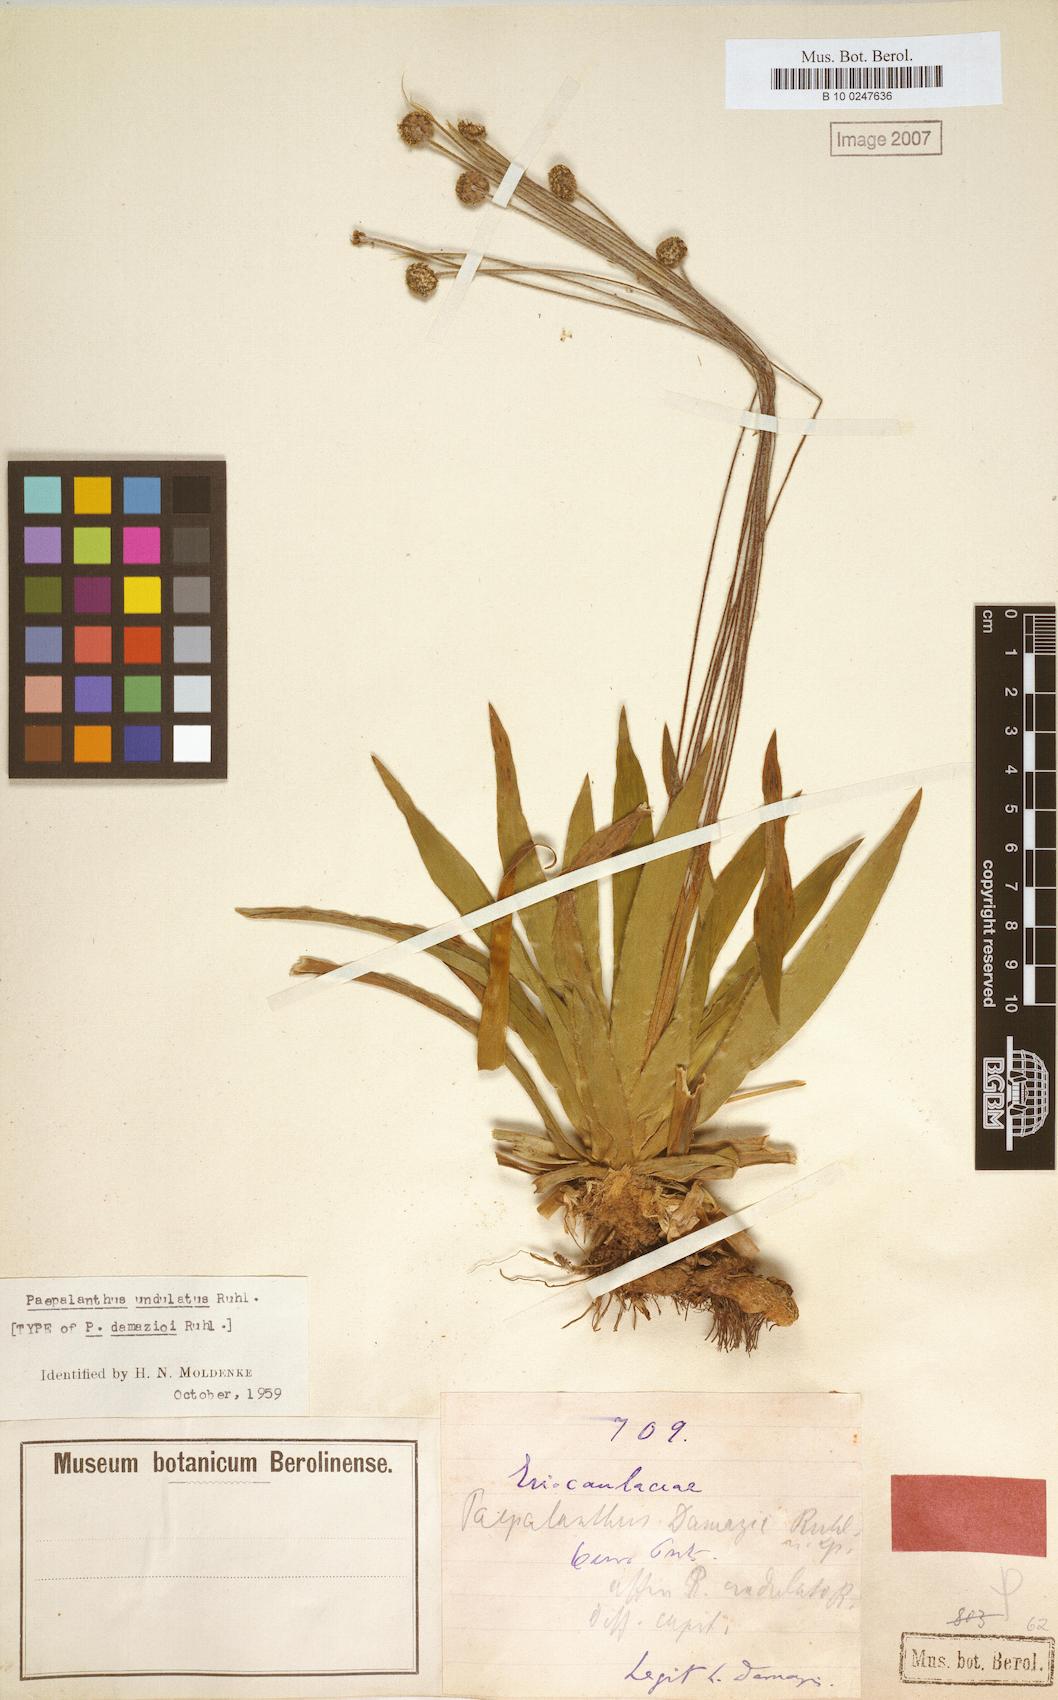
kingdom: Plantae
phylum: Tracheophyta
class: Liliopsida
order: Poales
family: Eriocaulaceae
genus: Paepalanthus
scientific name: Paepalanthus undulatus
